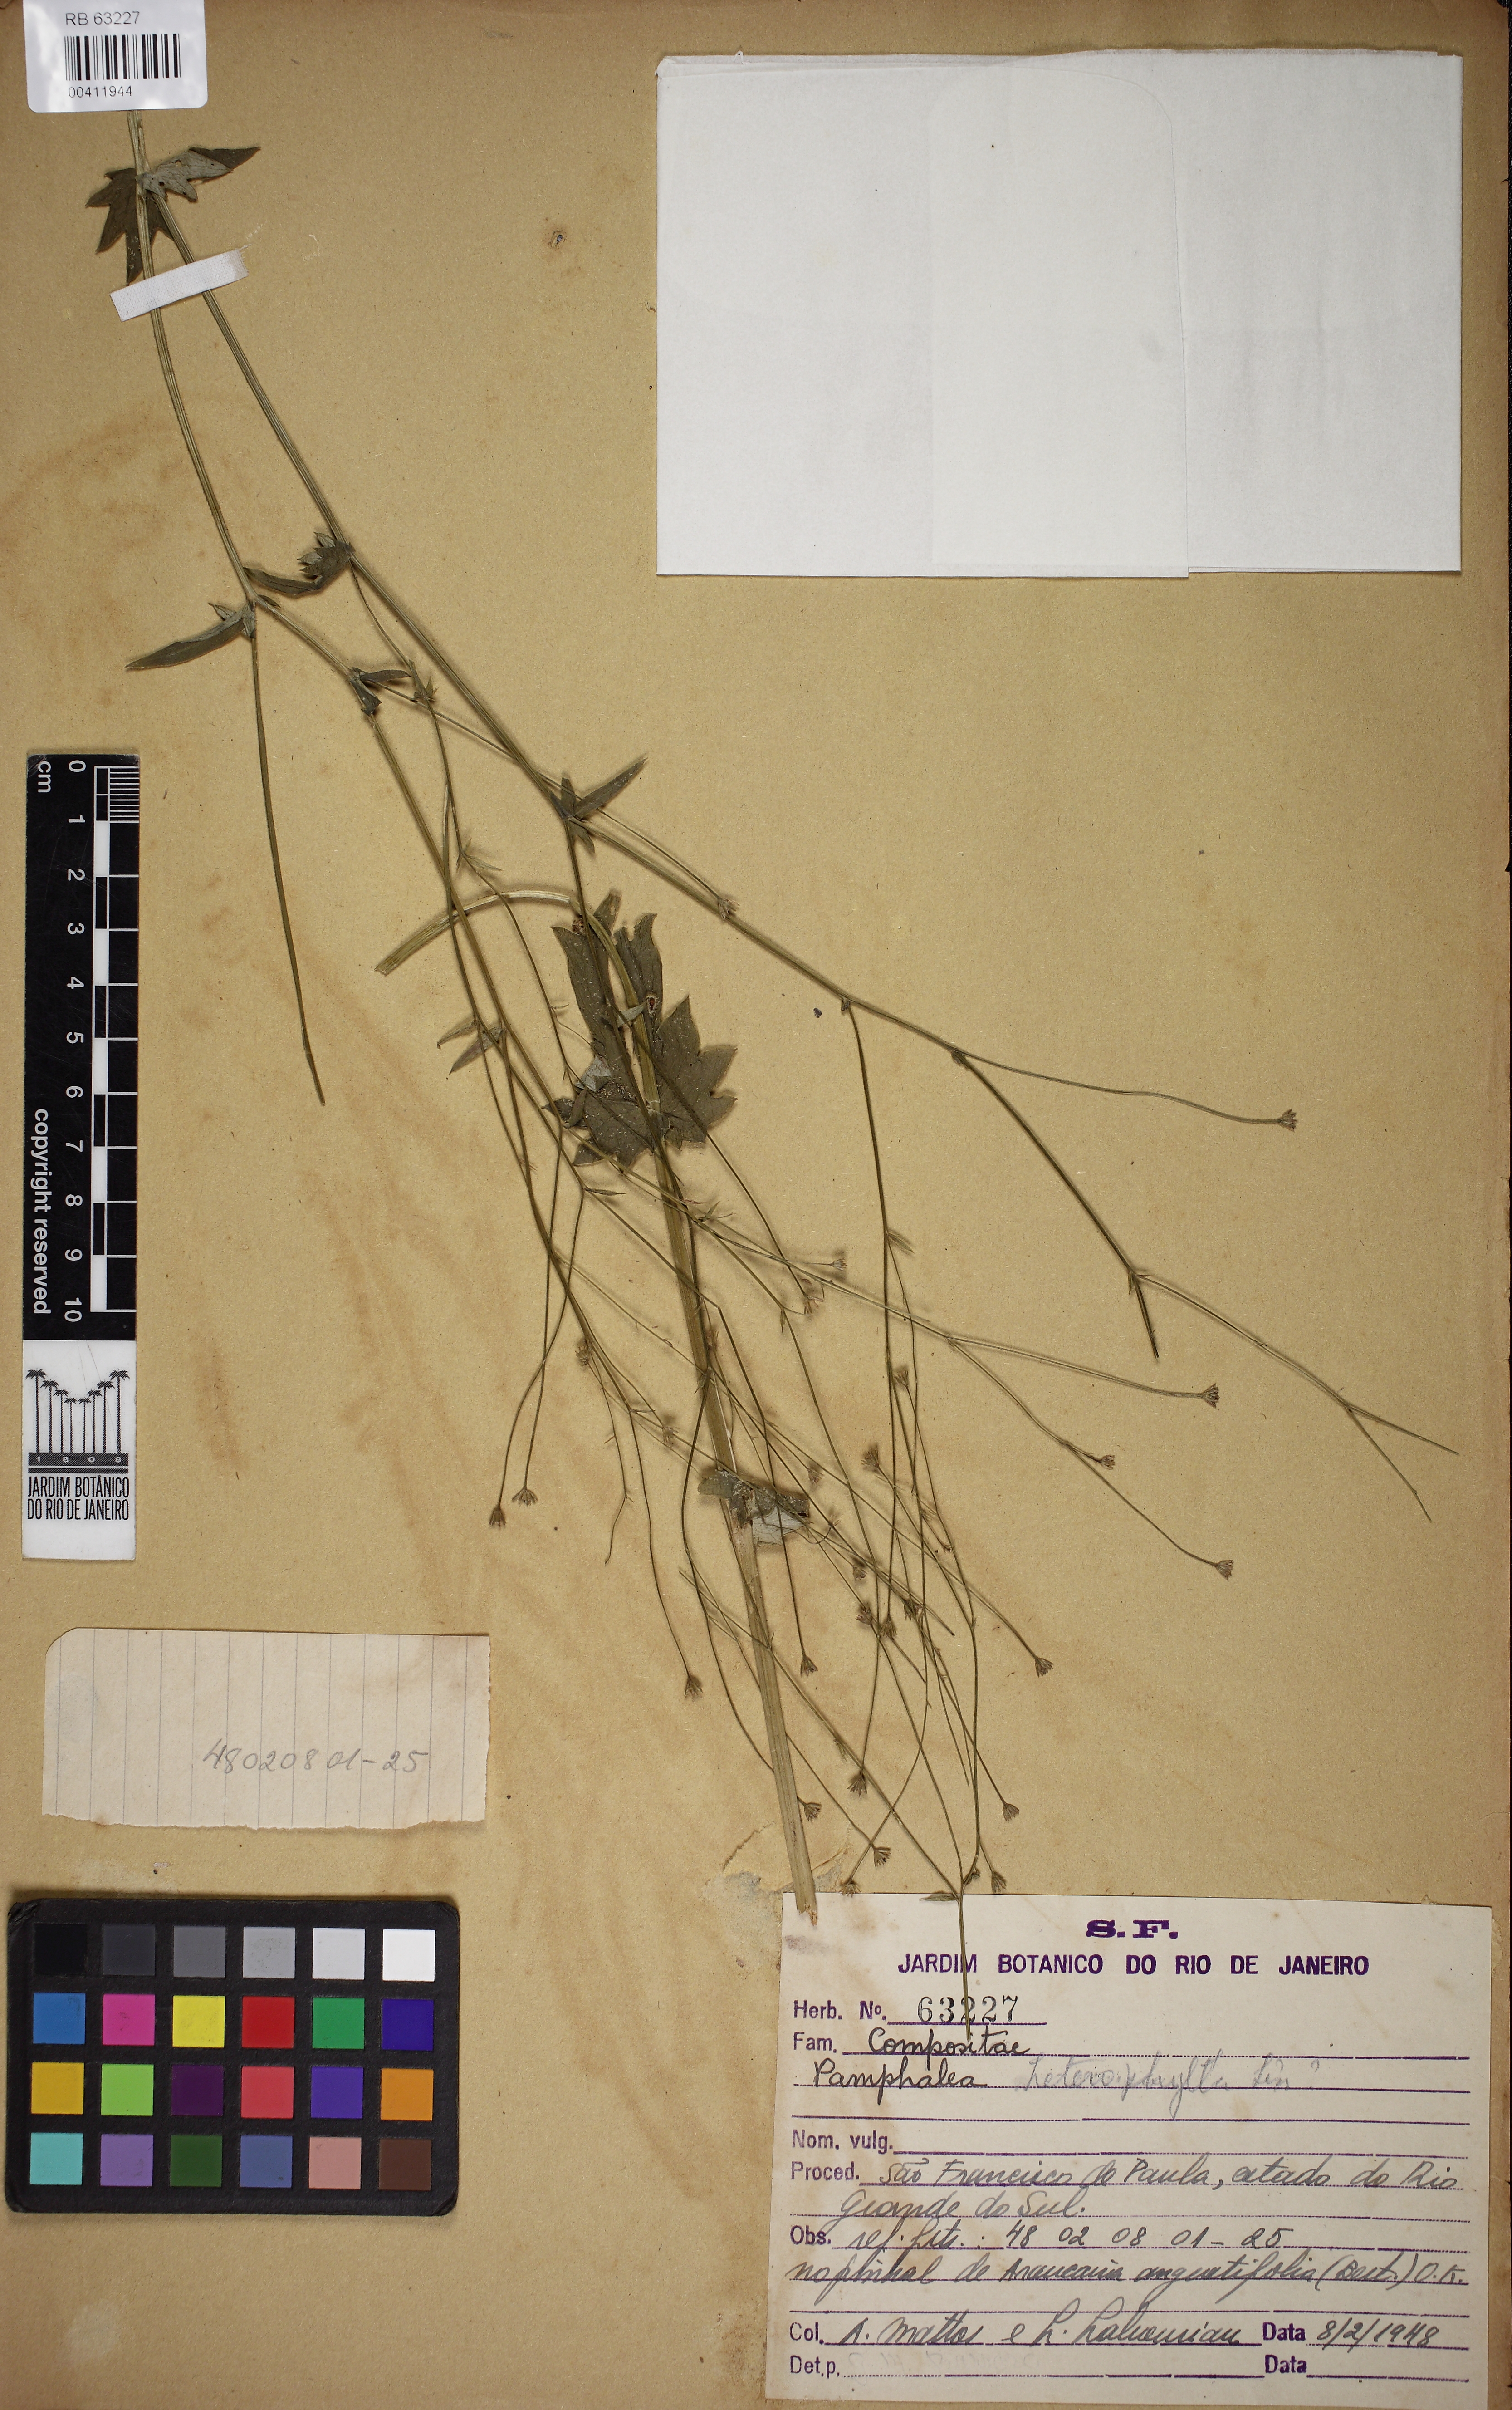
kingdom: Plantae
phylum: Tracheophyta
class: Magnoliopsida
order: Asterales
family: Asteraceae
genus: Panphalea
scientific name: Panphalea heterophylla
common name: Daisy
